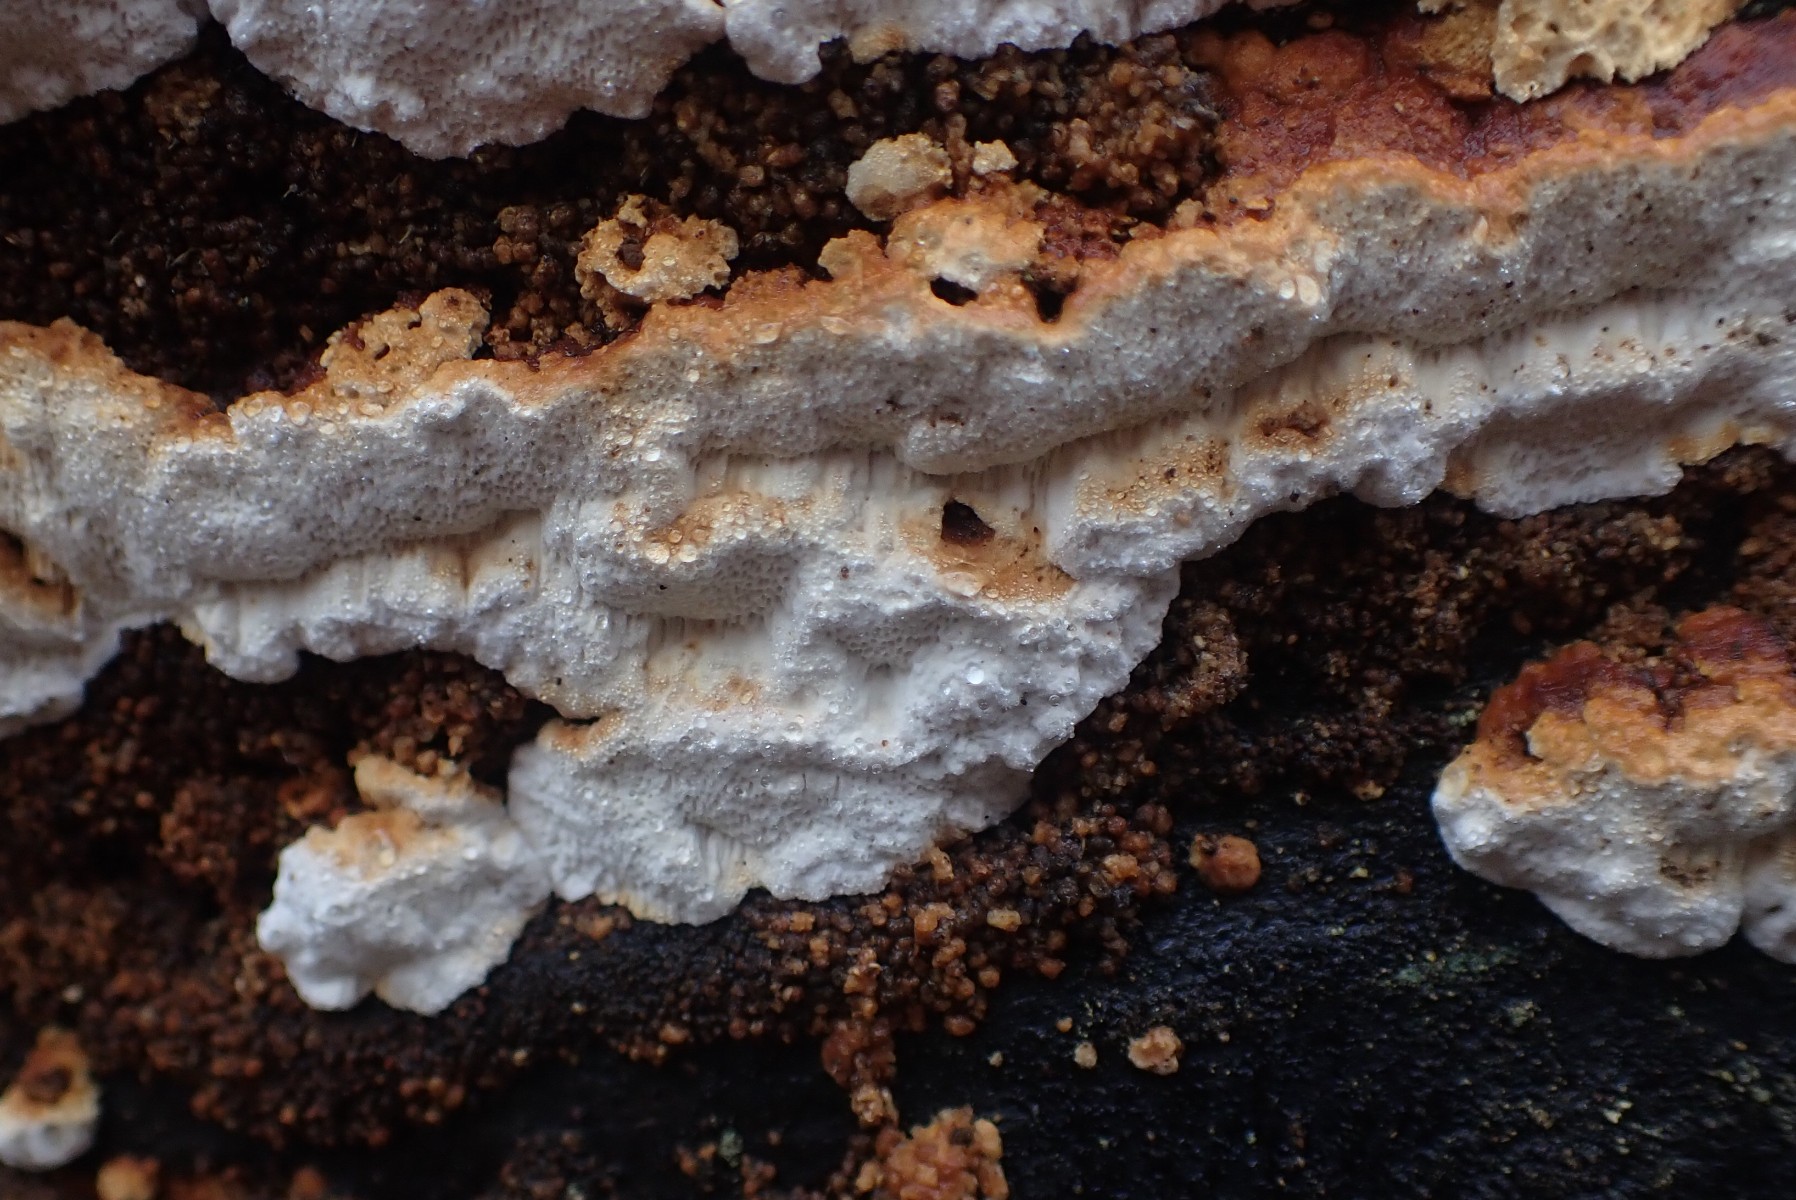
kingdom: Fungi
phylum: Basidiomycota
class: Agaricomycetes
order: Polyporales
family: Fomitopsidaceae
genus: Neoantrodia
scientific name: Neoantrodia serialis
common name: række-sejporesvamp
